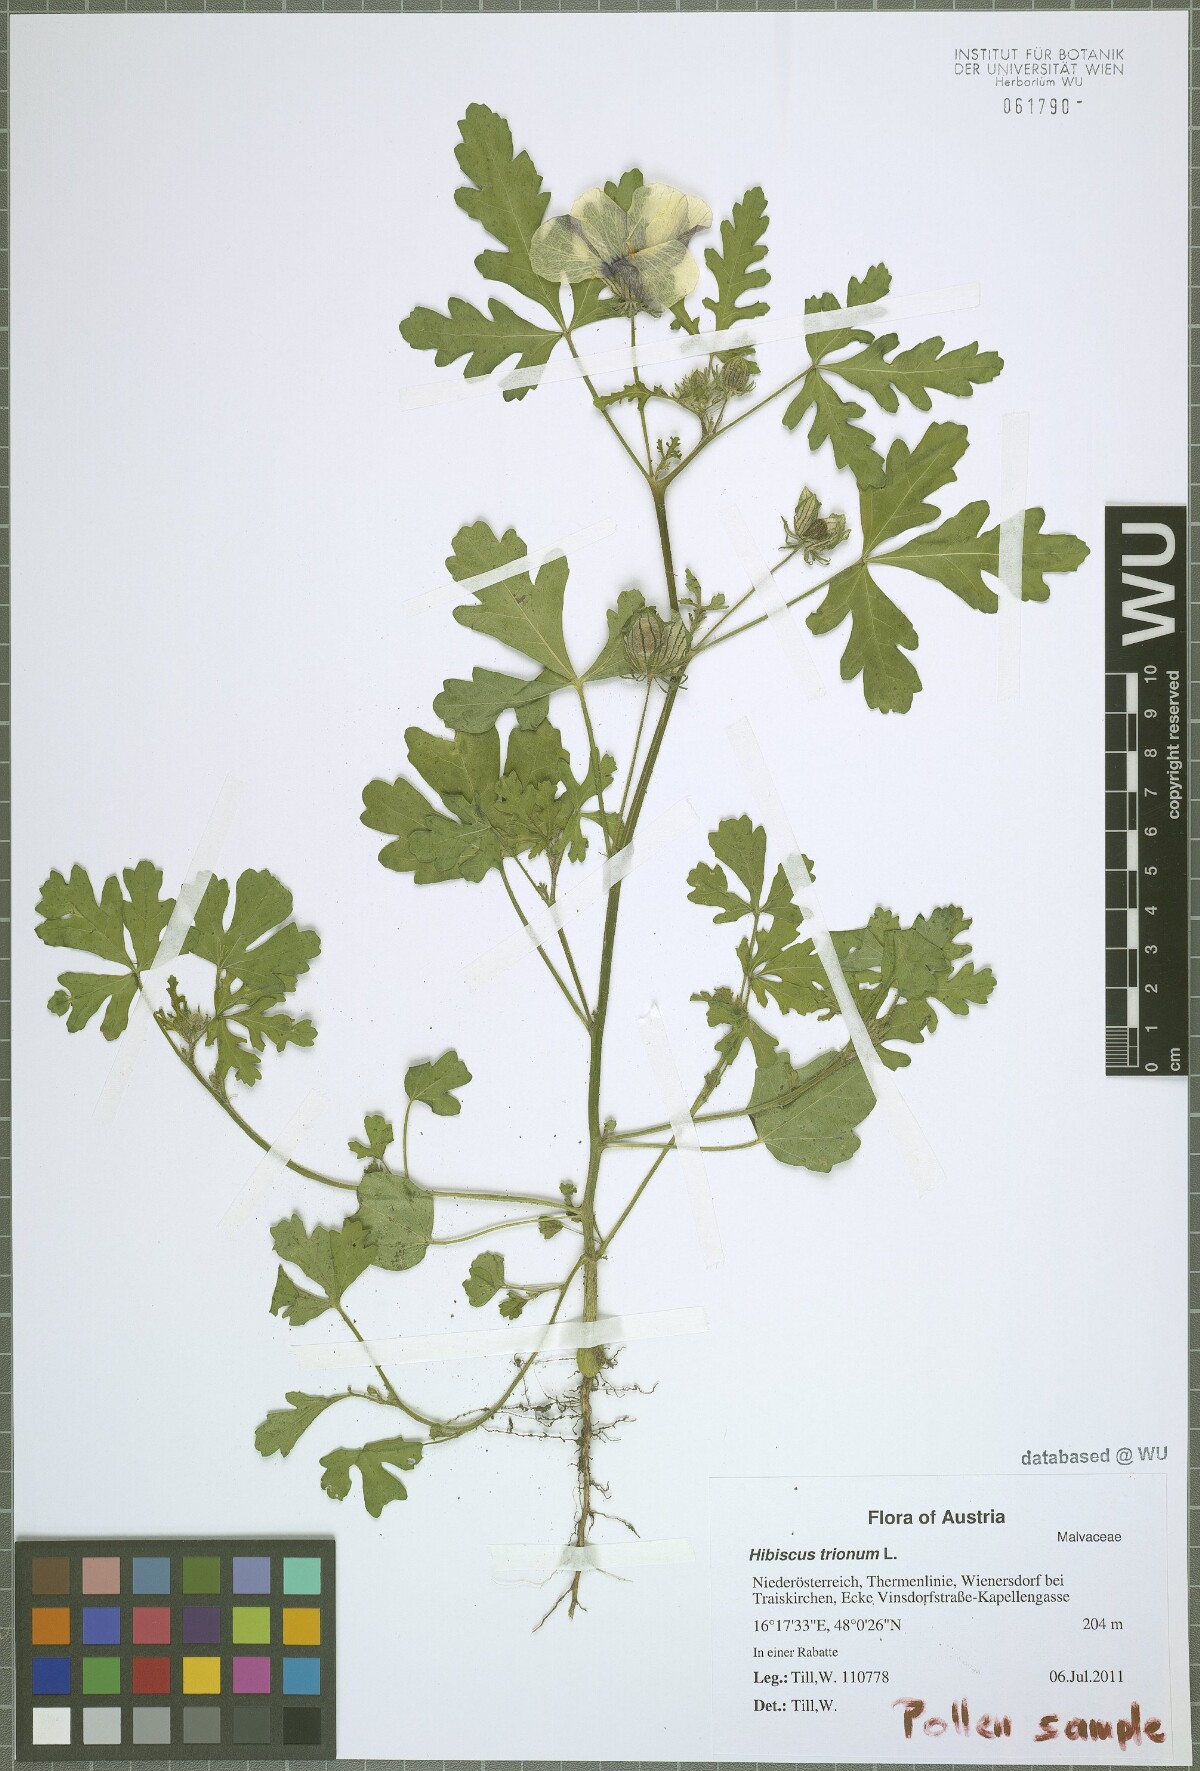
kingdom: Plantae
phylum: Tracheophyta
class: Magnoliopsida
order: Malvales
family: Malvaceae
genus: Hibiscus
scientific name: Hibiscus trionum
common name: Bladder ketmia
